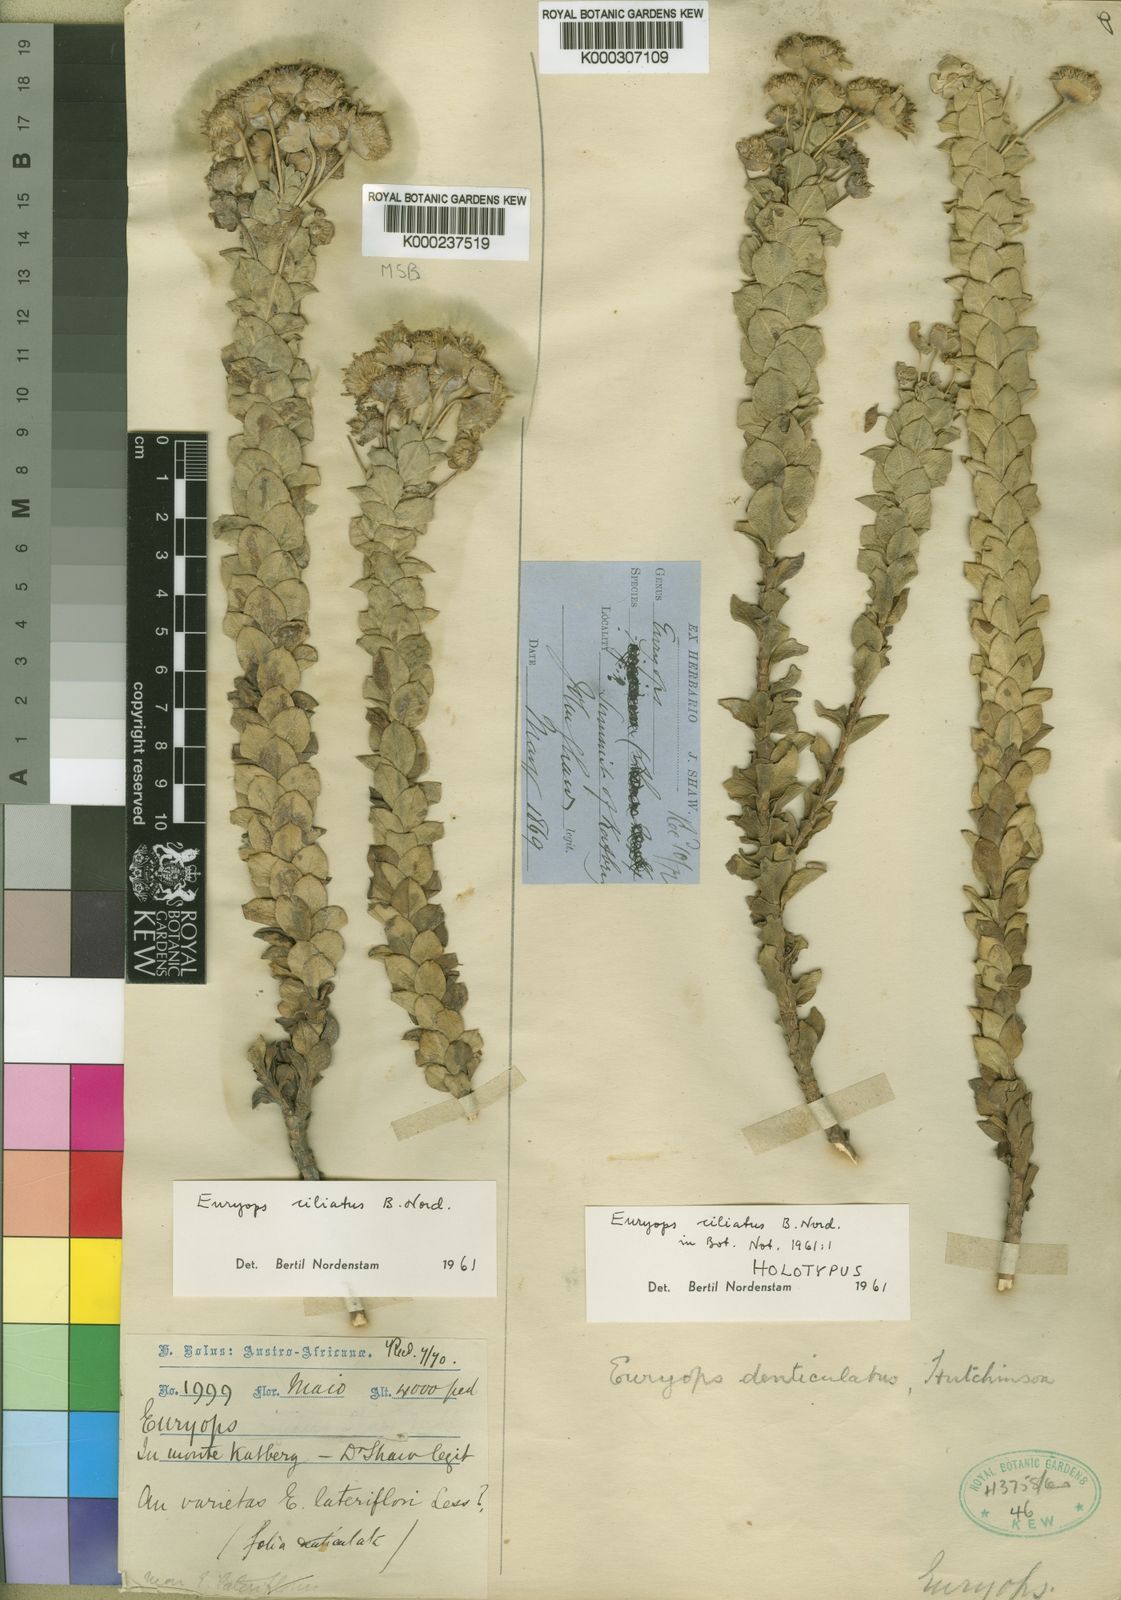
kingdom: Plantae
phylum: Tracheophyta
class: Magnoliopsida
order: Asterales
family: Asteraceae
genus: Euryops
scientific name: Euryops ciliatus
